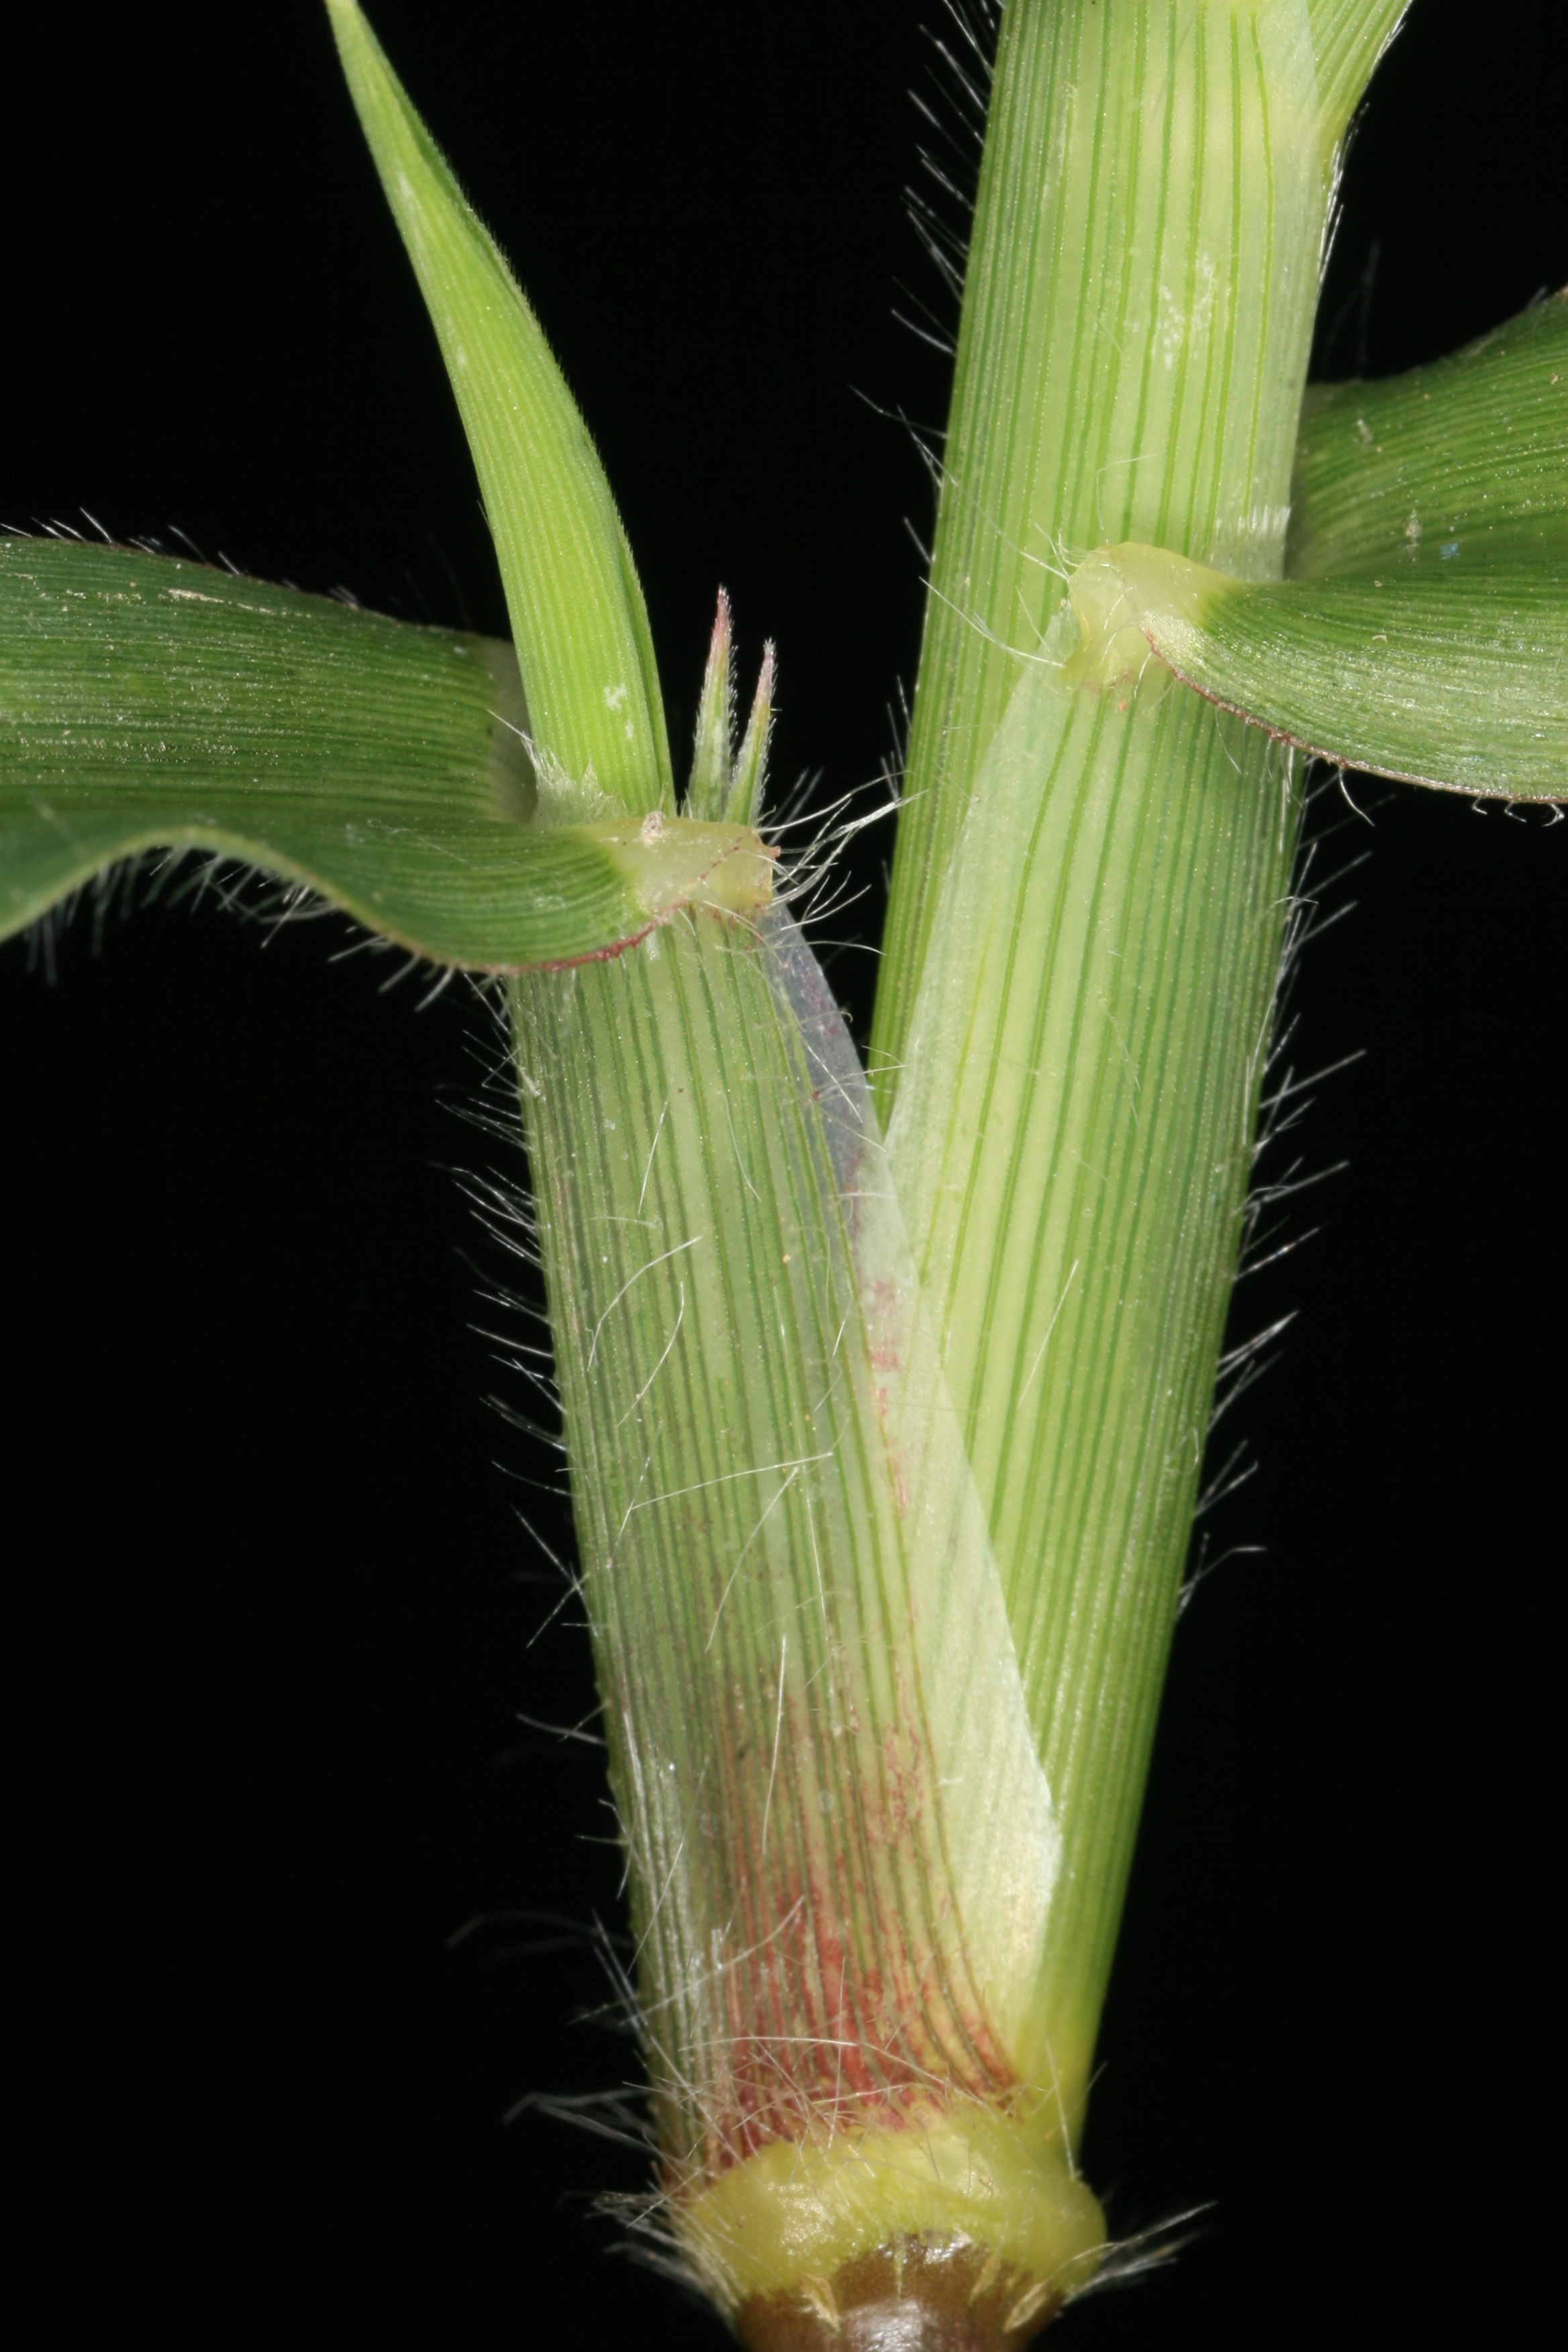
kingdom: Plantae
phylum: Tracheophyta
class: Liliopsida
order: Poales
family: Poaceae
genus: Dactyloctenium
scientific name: Dactyloctenium aegyptium
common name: Egyptian grass
